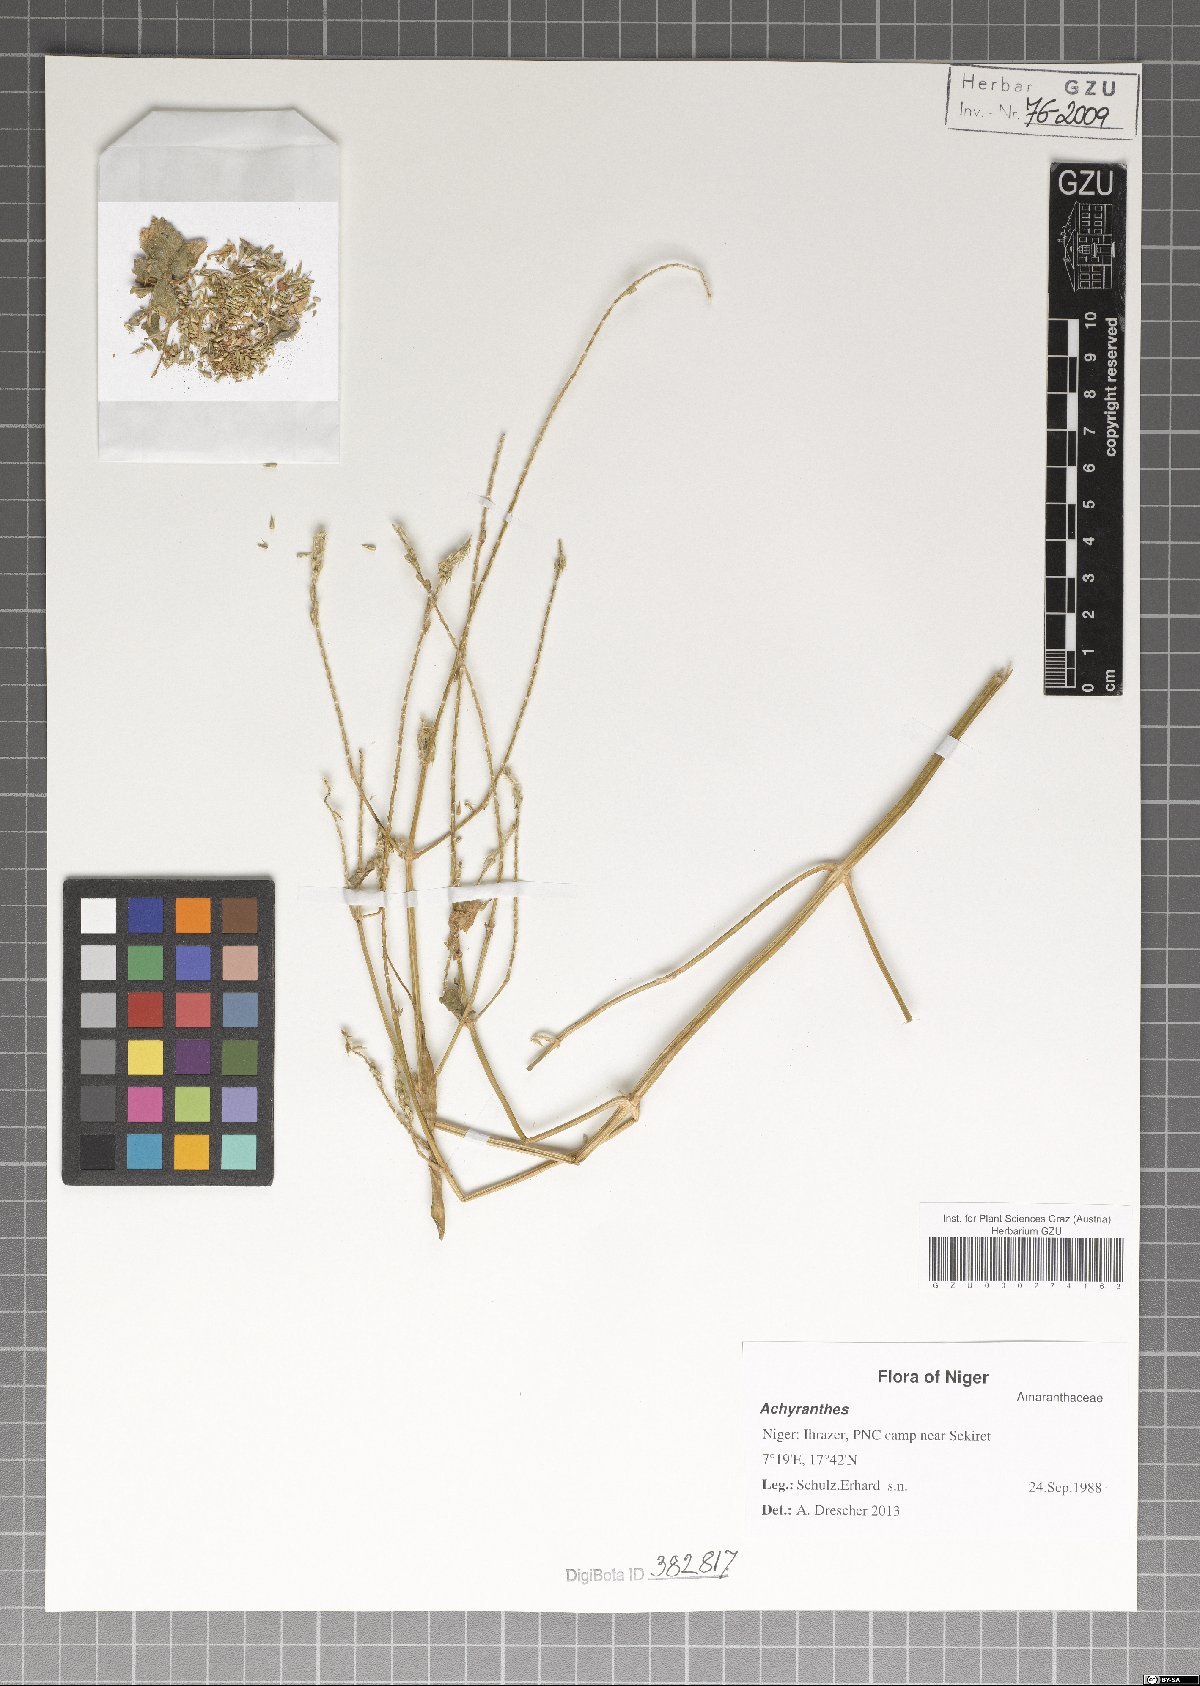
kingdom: Plantae
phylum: Tracheophyta
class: Magnoliopsida
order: Caryophyllales
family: Amaranthaceae
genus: Achyranthes
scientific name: Achyranthes
